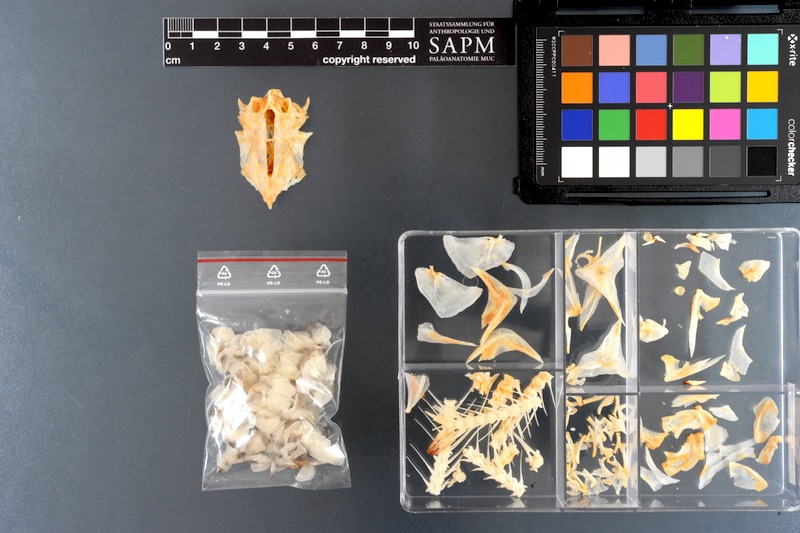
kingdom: Animalia
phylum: Chordata
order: Characiformes
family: Anostomidae
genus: Leporinus
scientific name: Leporinus fasciatus
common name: Banded leporinus
